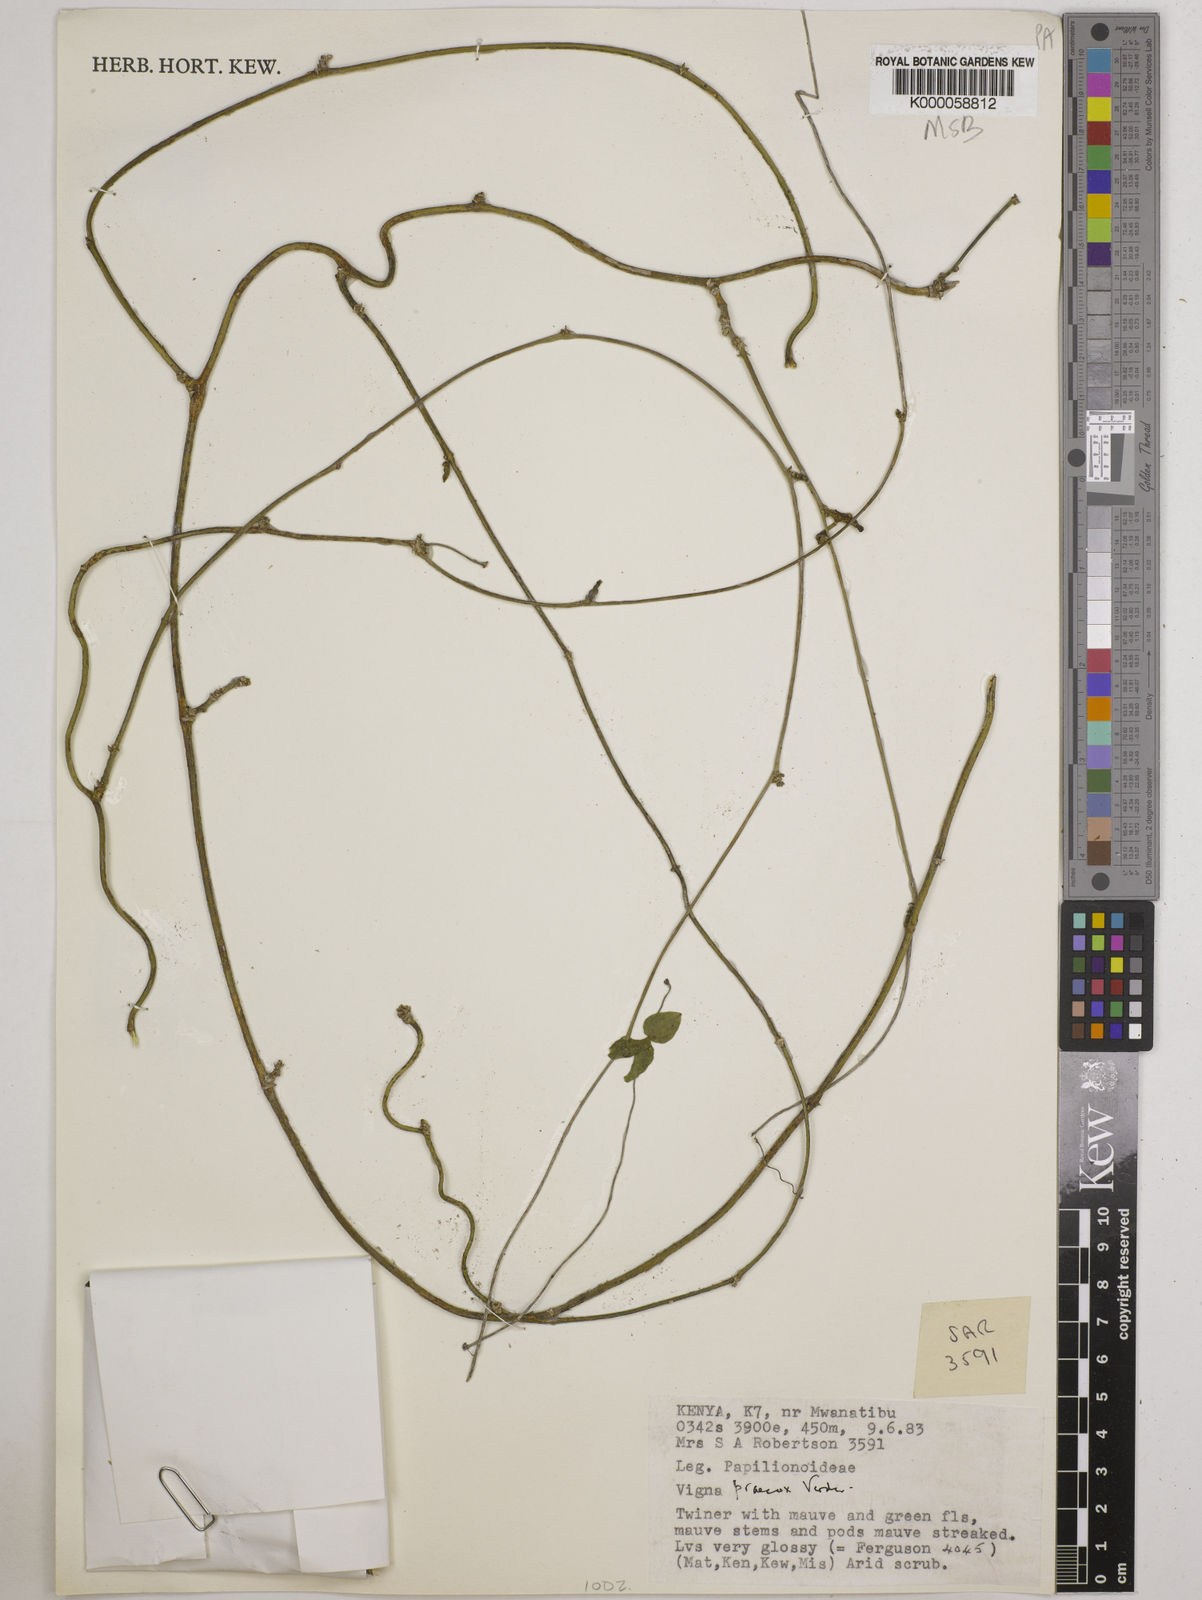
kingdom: Plantae
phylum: Tracheophyta
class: Magnoliopsida
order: Fabales
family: Fabaceae
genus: Wajira
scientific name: Wajira praecox
